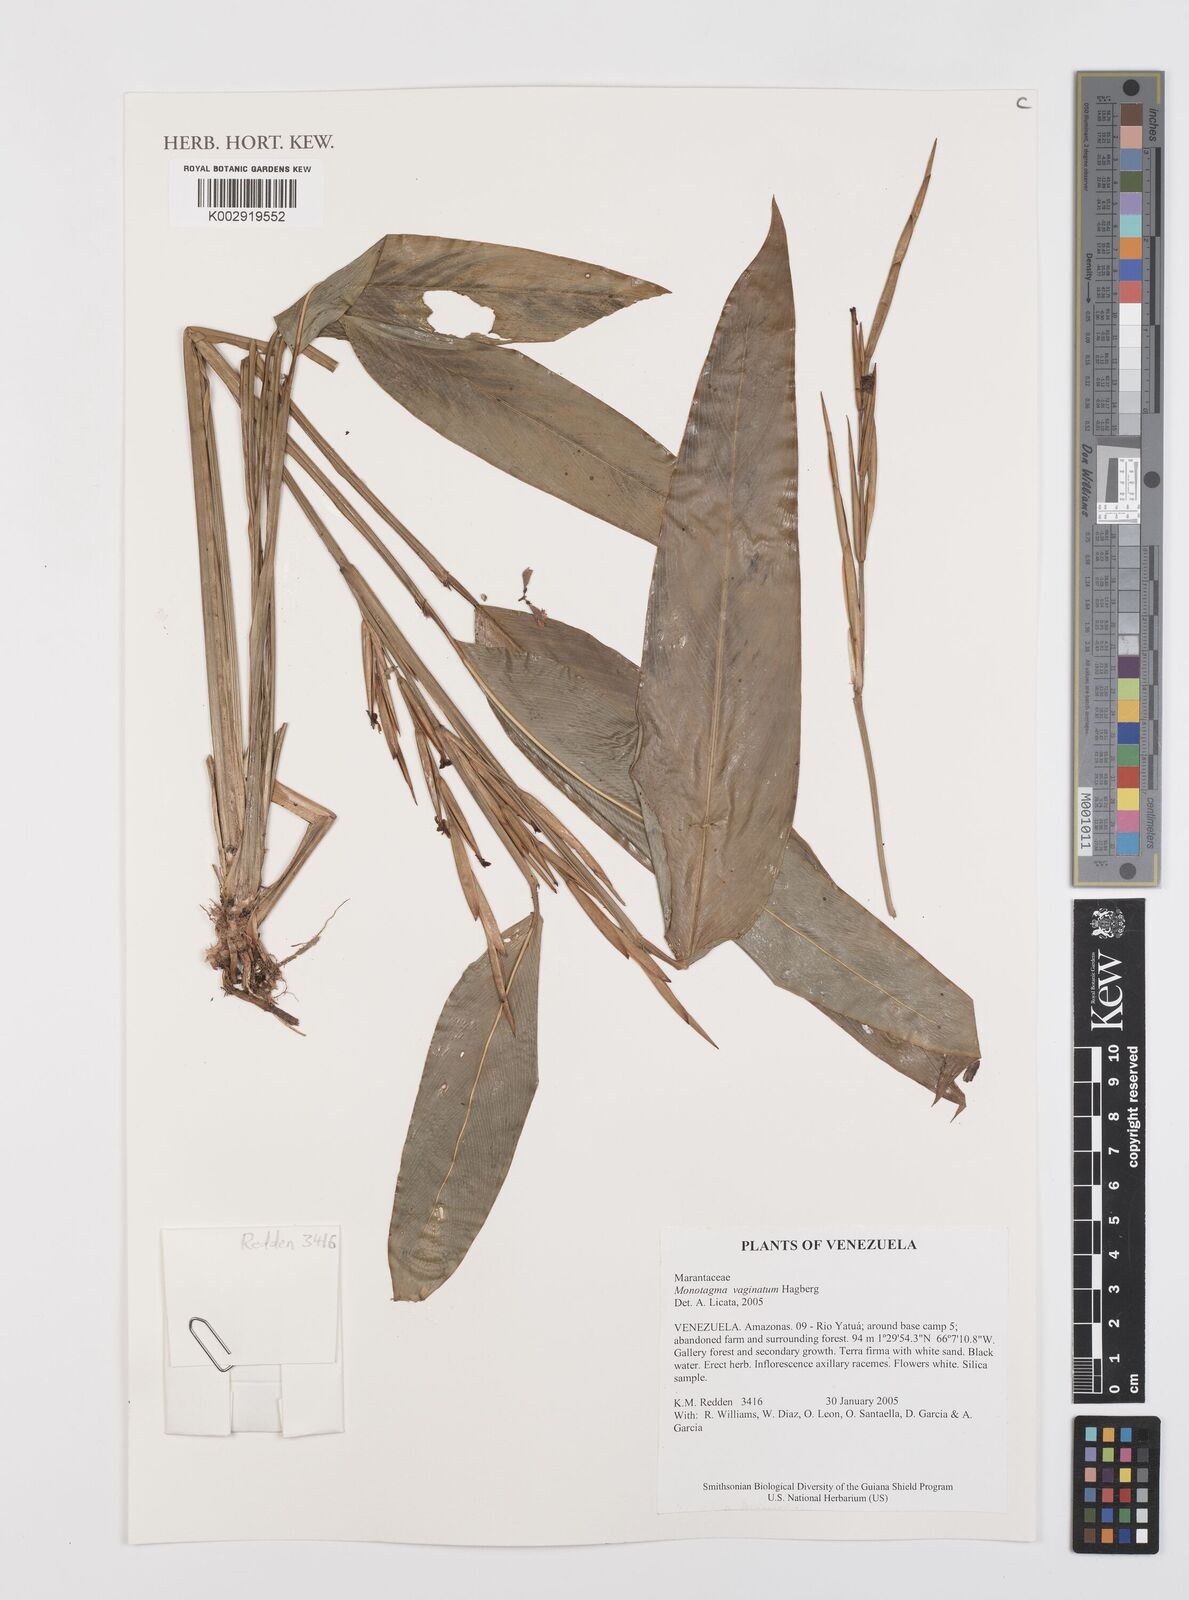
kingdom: Plantae
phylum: Tracheophyta
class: Liliopsida
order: Zingiberales
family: Marantaceae
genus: Monotagma
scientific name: Monotagma vaginatum
